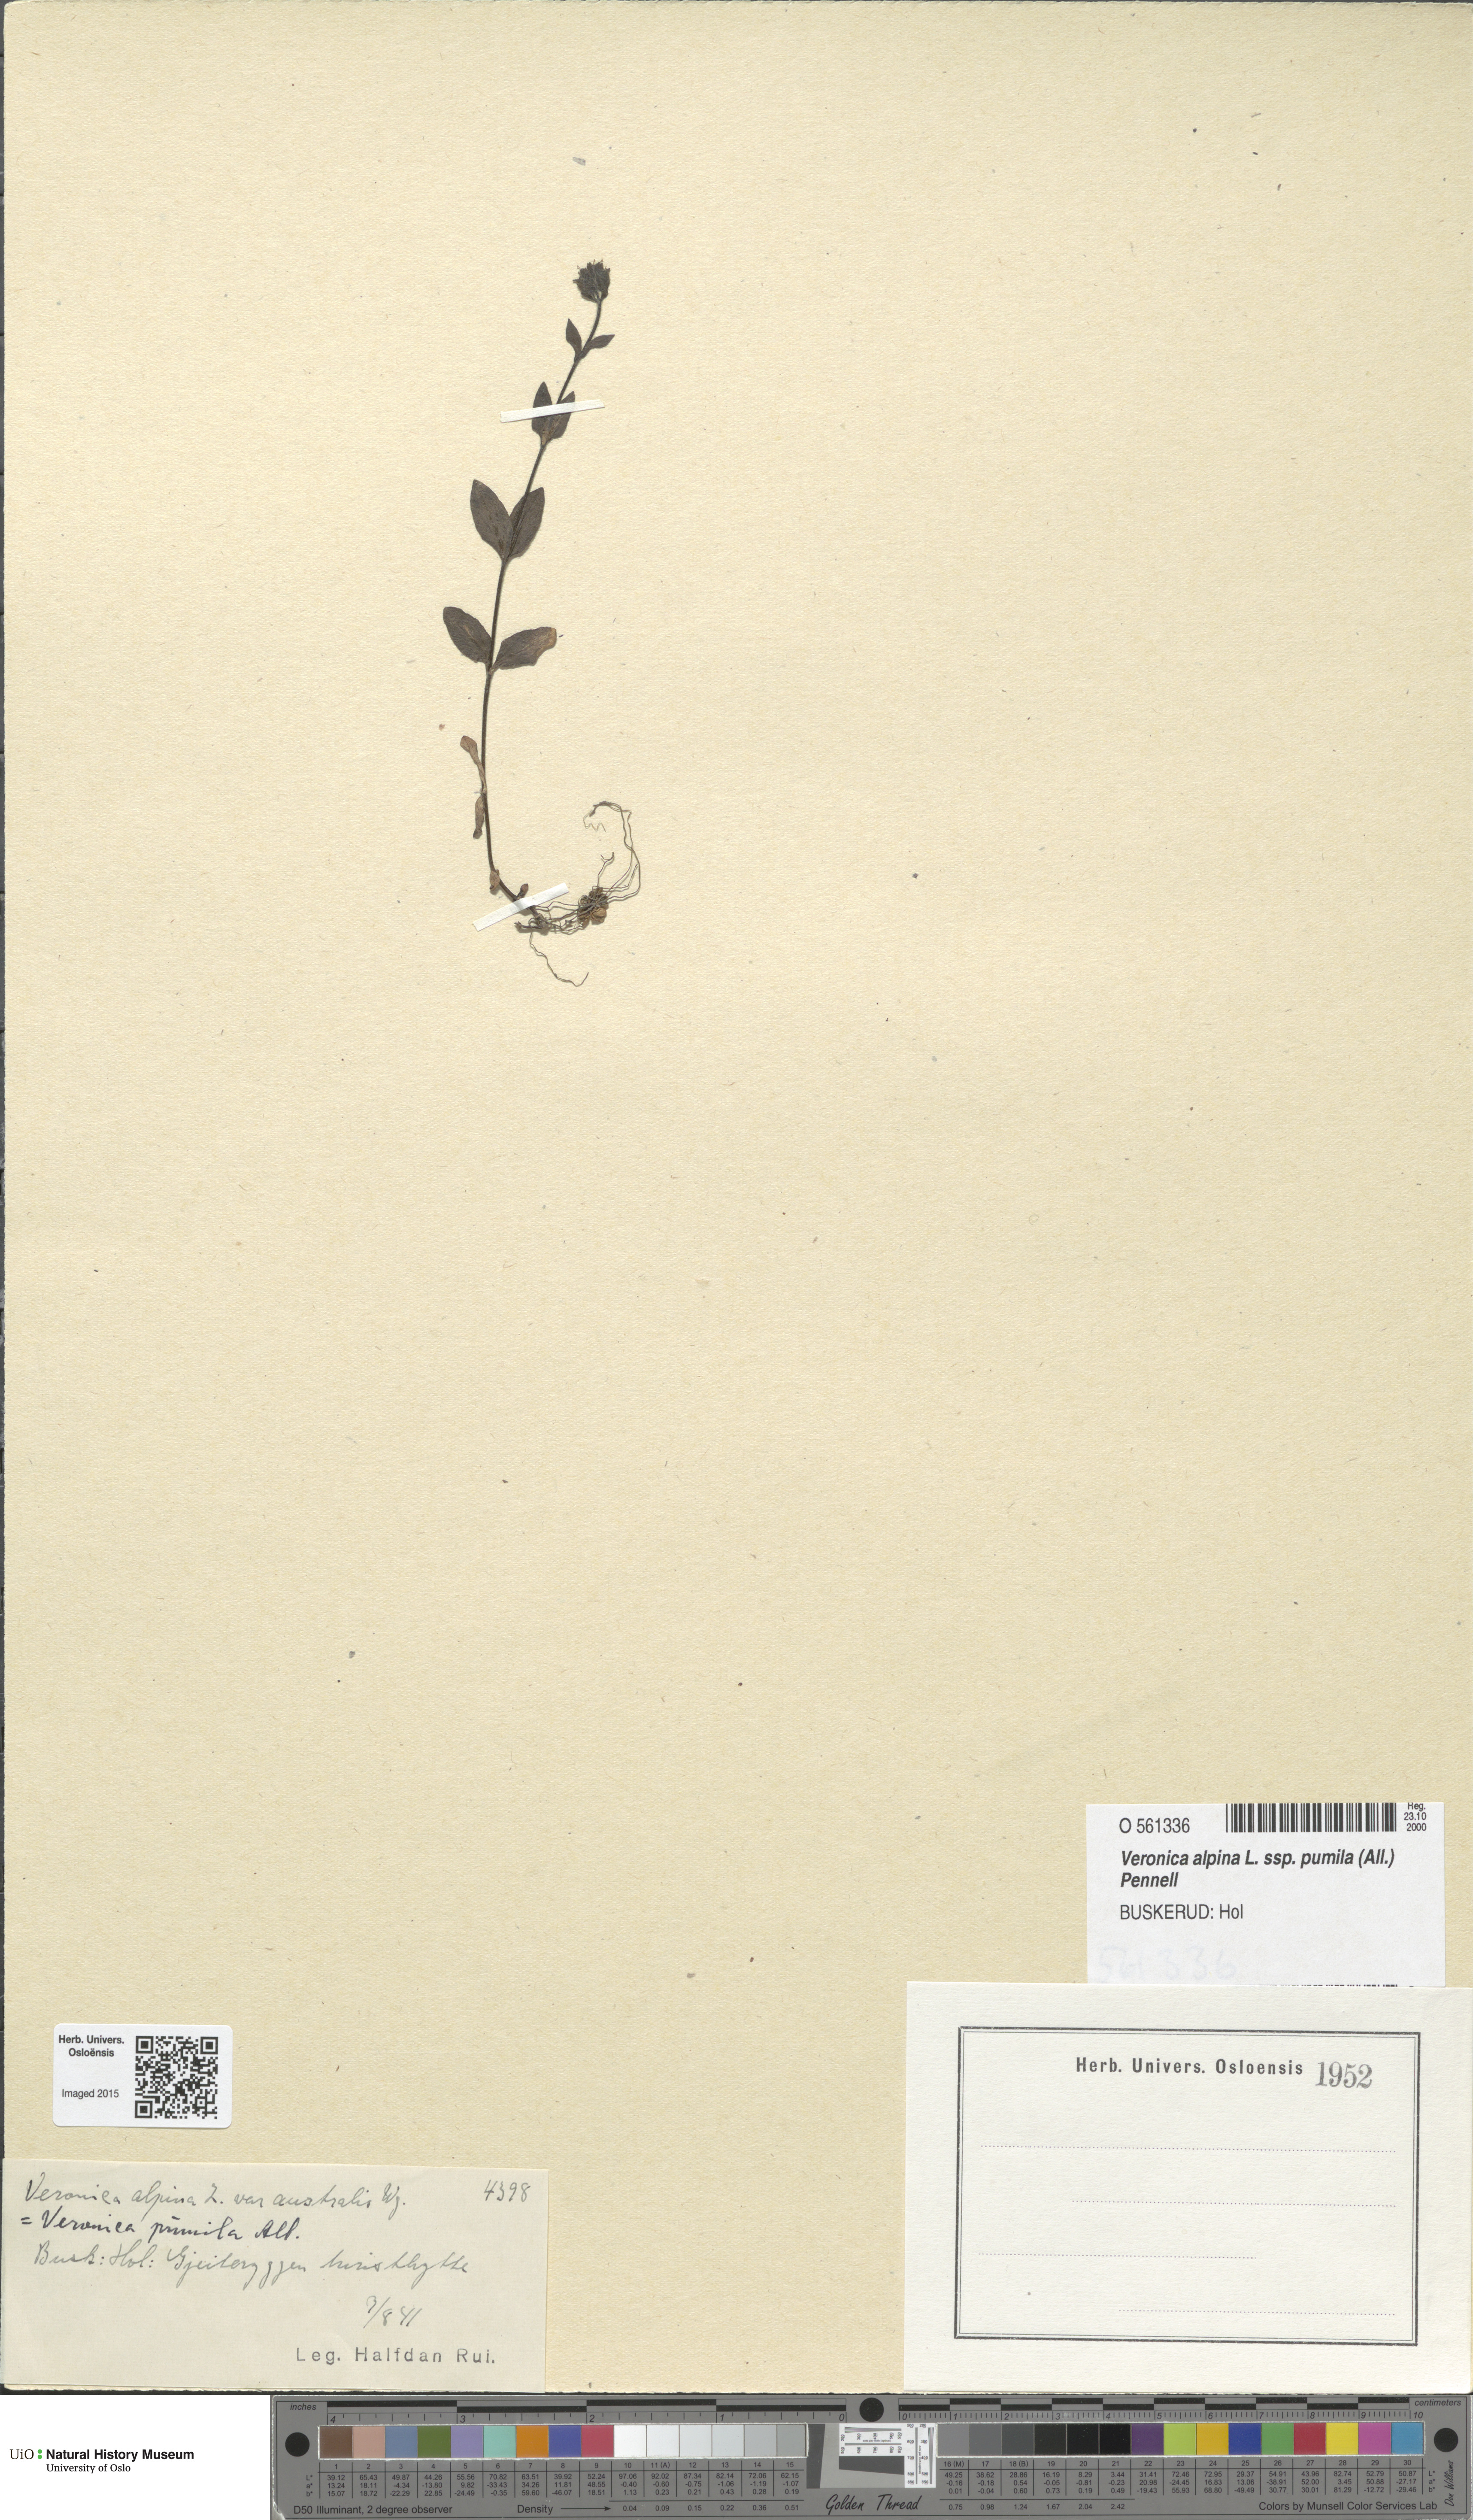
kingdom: Plantae
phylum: Tracheophyta
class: Magnoliopsida
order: Lamiales
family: Plantaginaceae
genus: Veronica
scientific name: Veronica alpina
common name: Alpine speedwell
